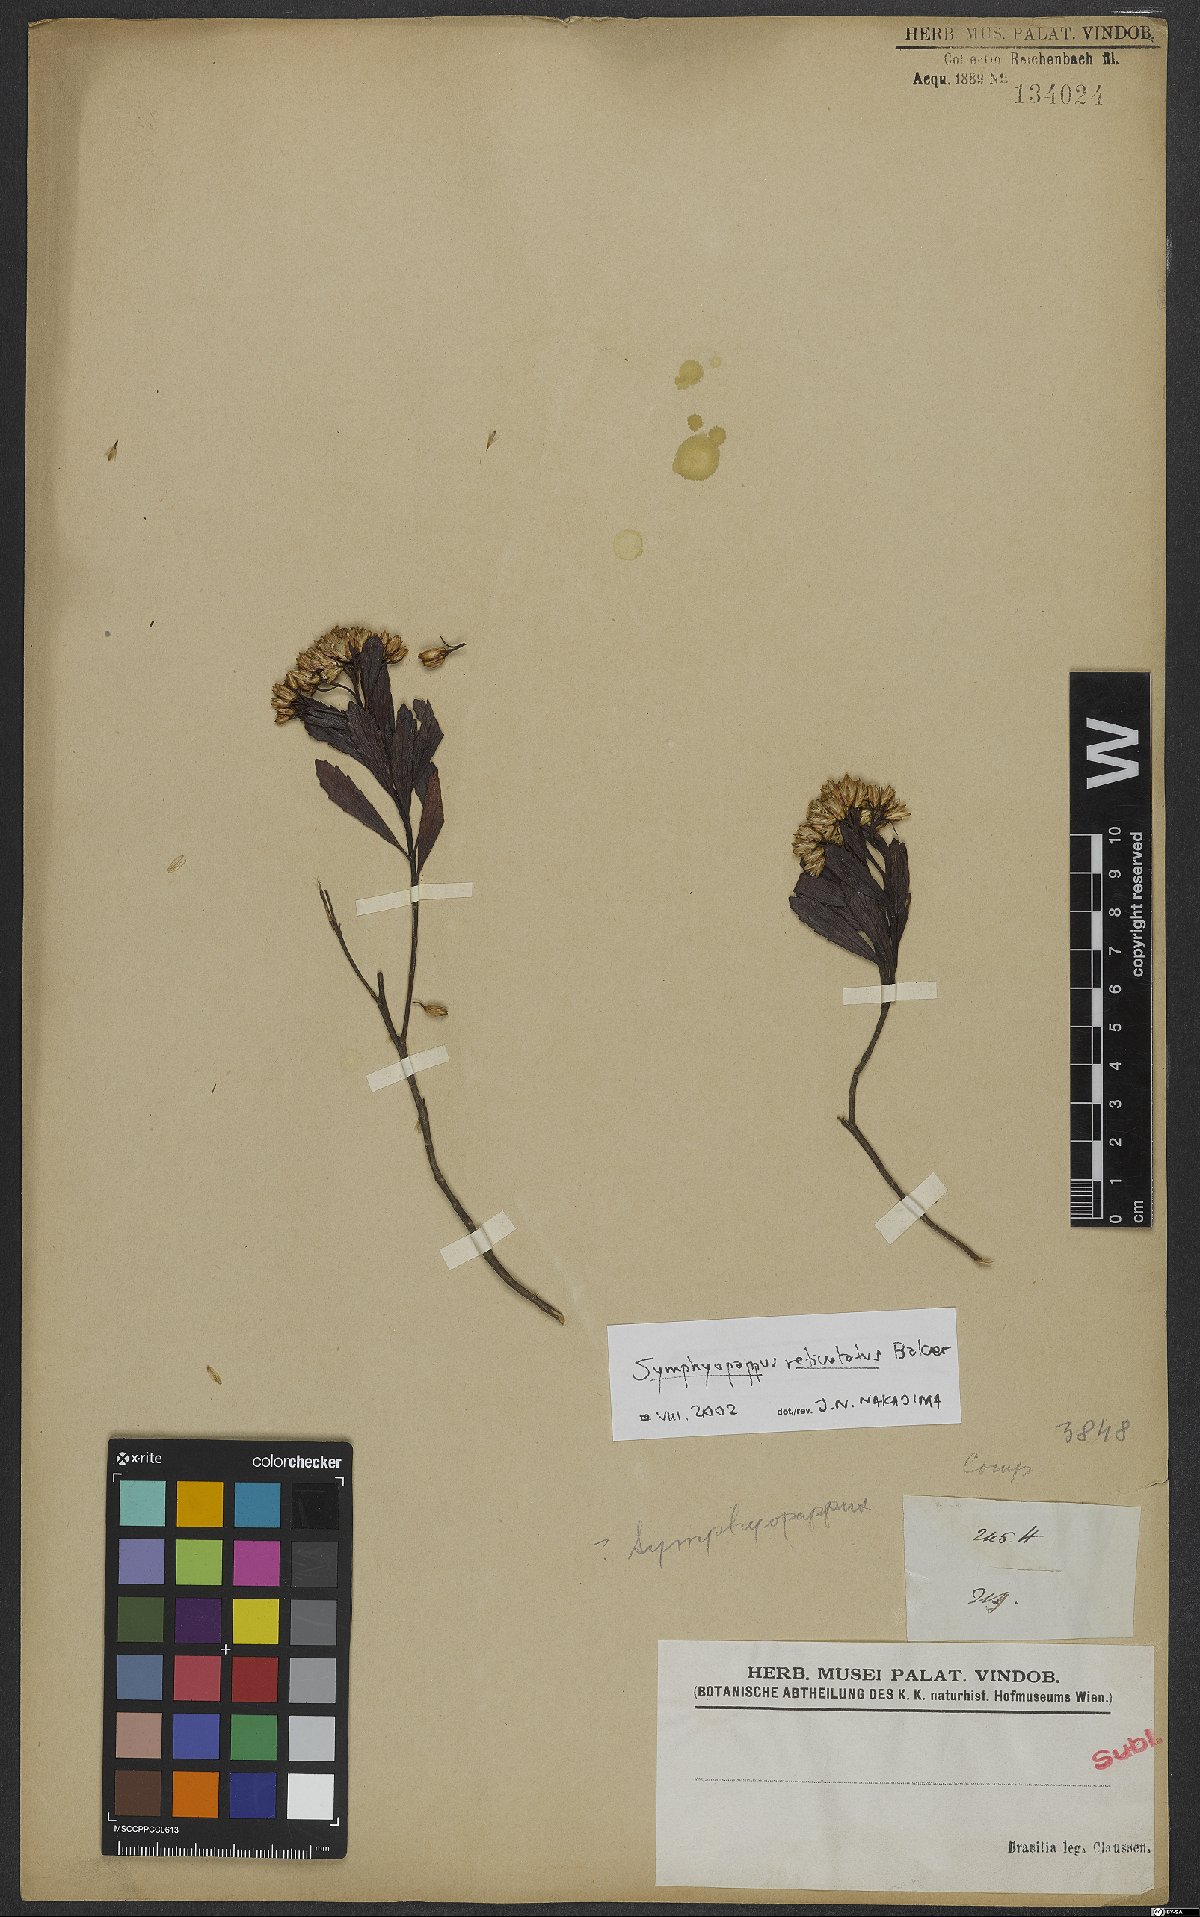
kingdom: Plantae
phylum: Tracheophyta
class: Magnoliopsida
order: Asterales
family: Asteraceae
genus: Symphyopappus
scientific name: Symphyopappus reticulatus
